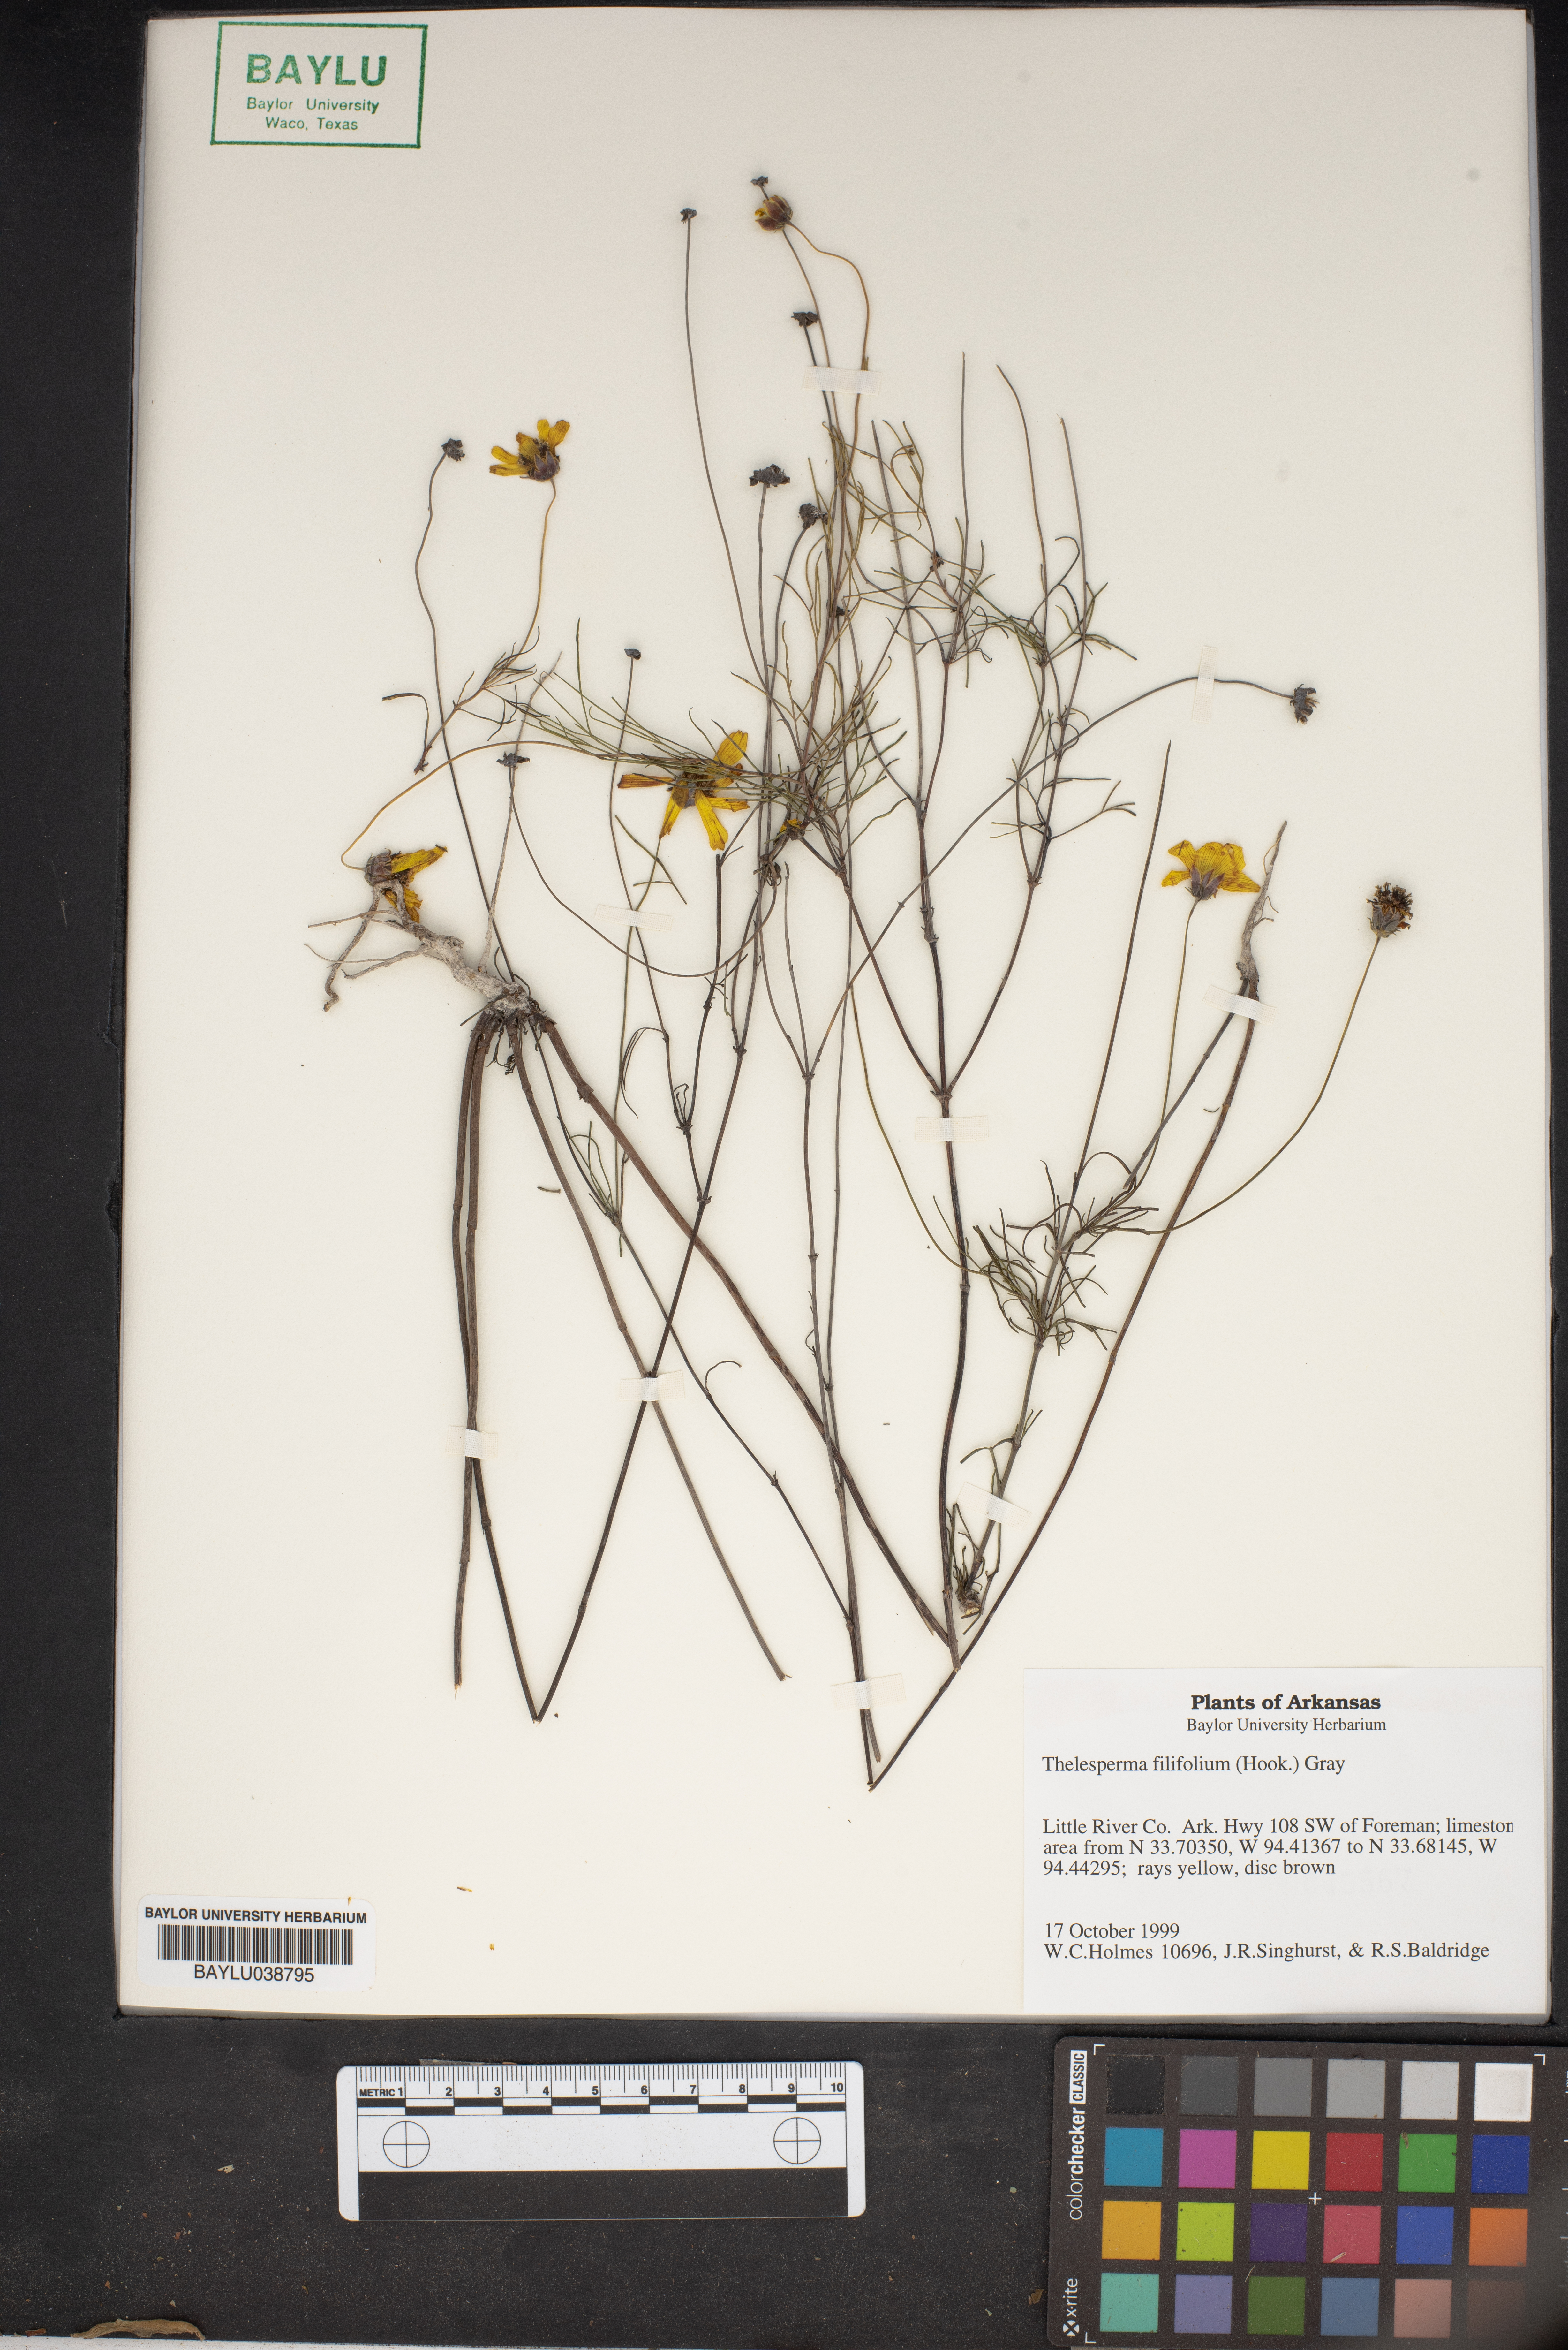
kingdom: Plantae
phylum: Tracheophyta
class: Magnoliopsida
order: Asterales
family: Asteraceae
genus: Thelesperma
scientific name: Thelesperma filifolium
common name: Stiff greenthread
